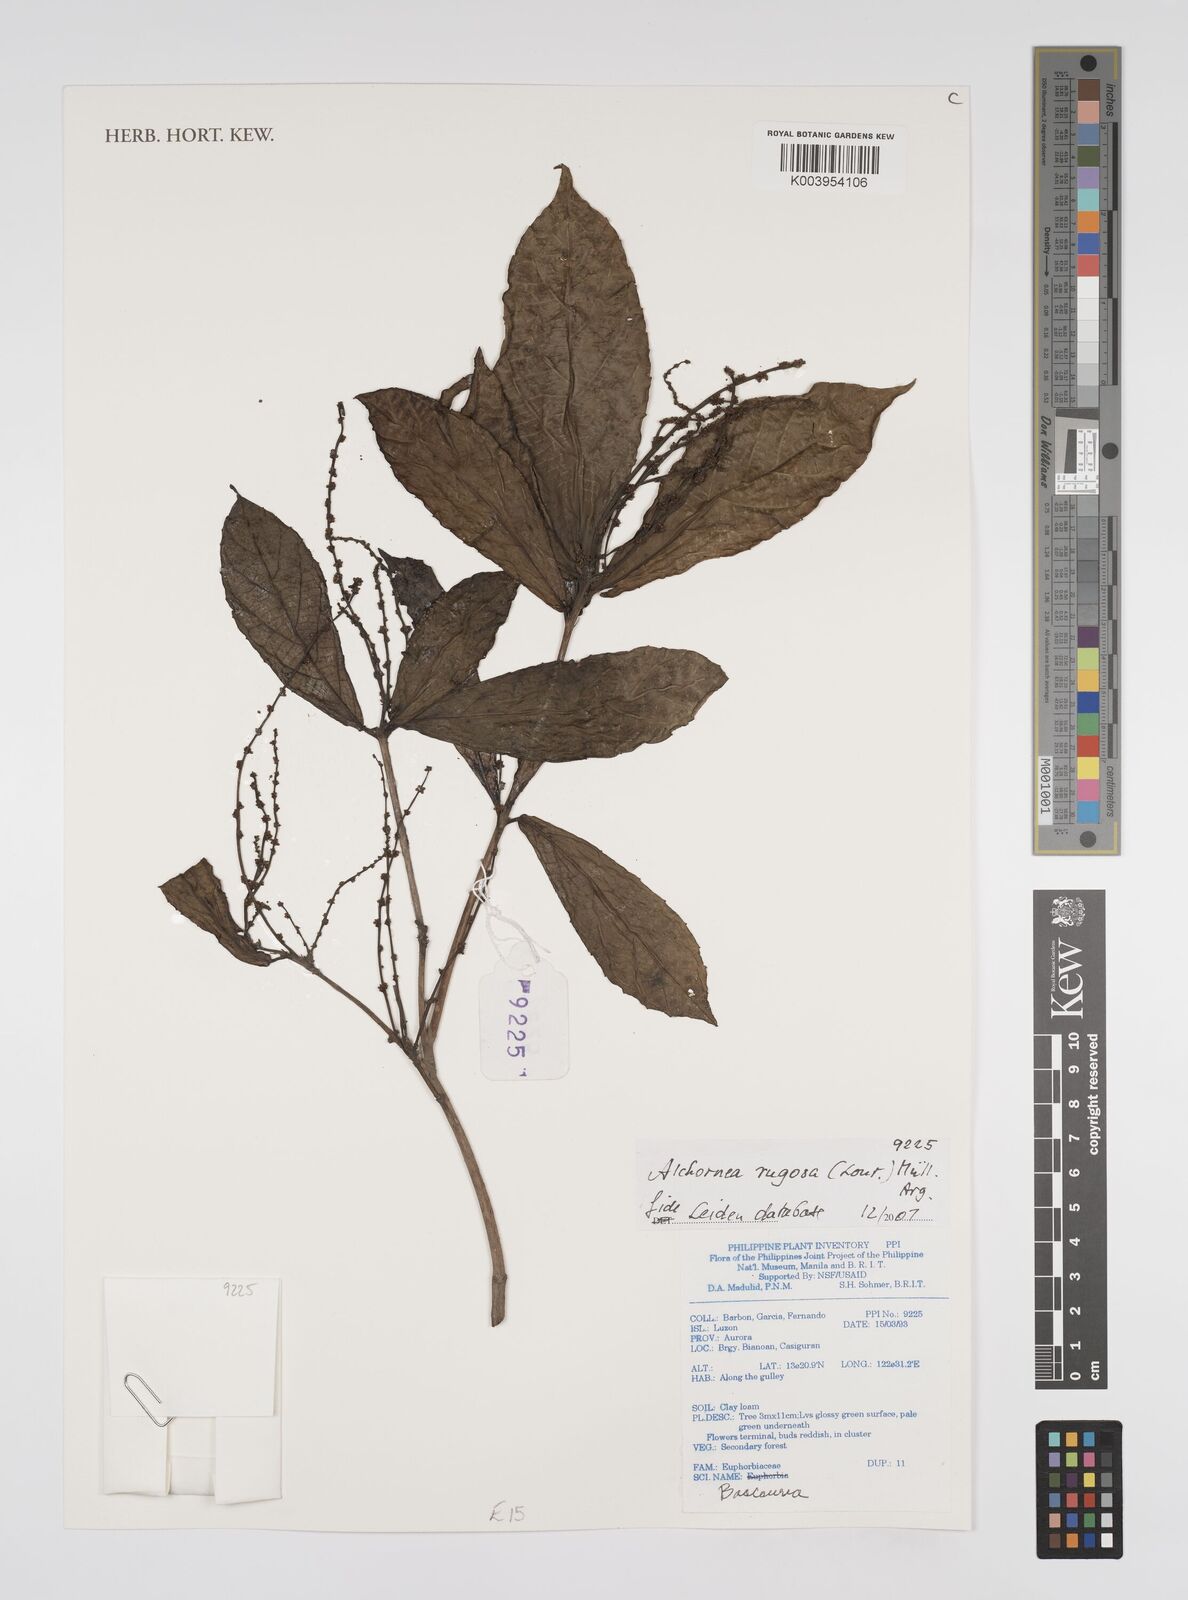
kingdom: Plantae
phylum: Tracheophyta
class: Magnoliopsida
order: Malpighiales
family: Euphorbiaceae
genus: Alchornea
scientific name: Alchornea rugosa
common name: Alchorntree
